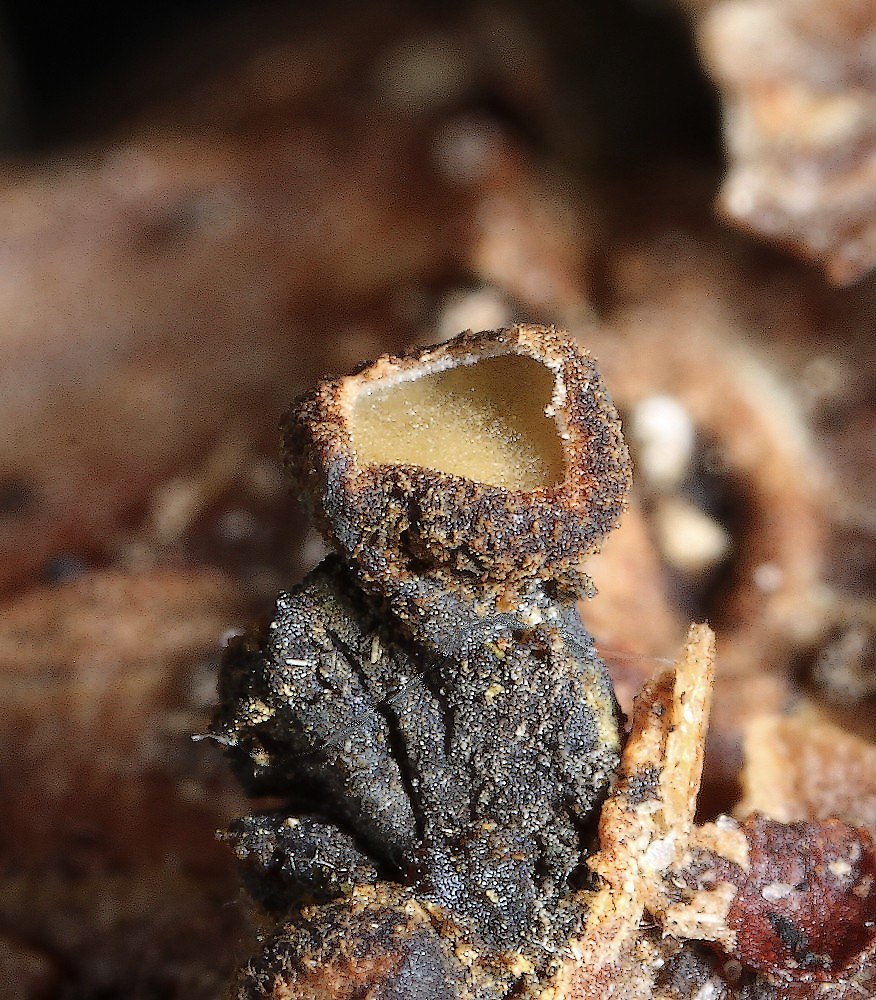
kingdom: Fungi
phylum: Ascomycota
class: Leotiomycetes
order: Helotiales
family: Cenangiaceae
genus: Cenangium
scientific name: Cenangium ferruginosum
